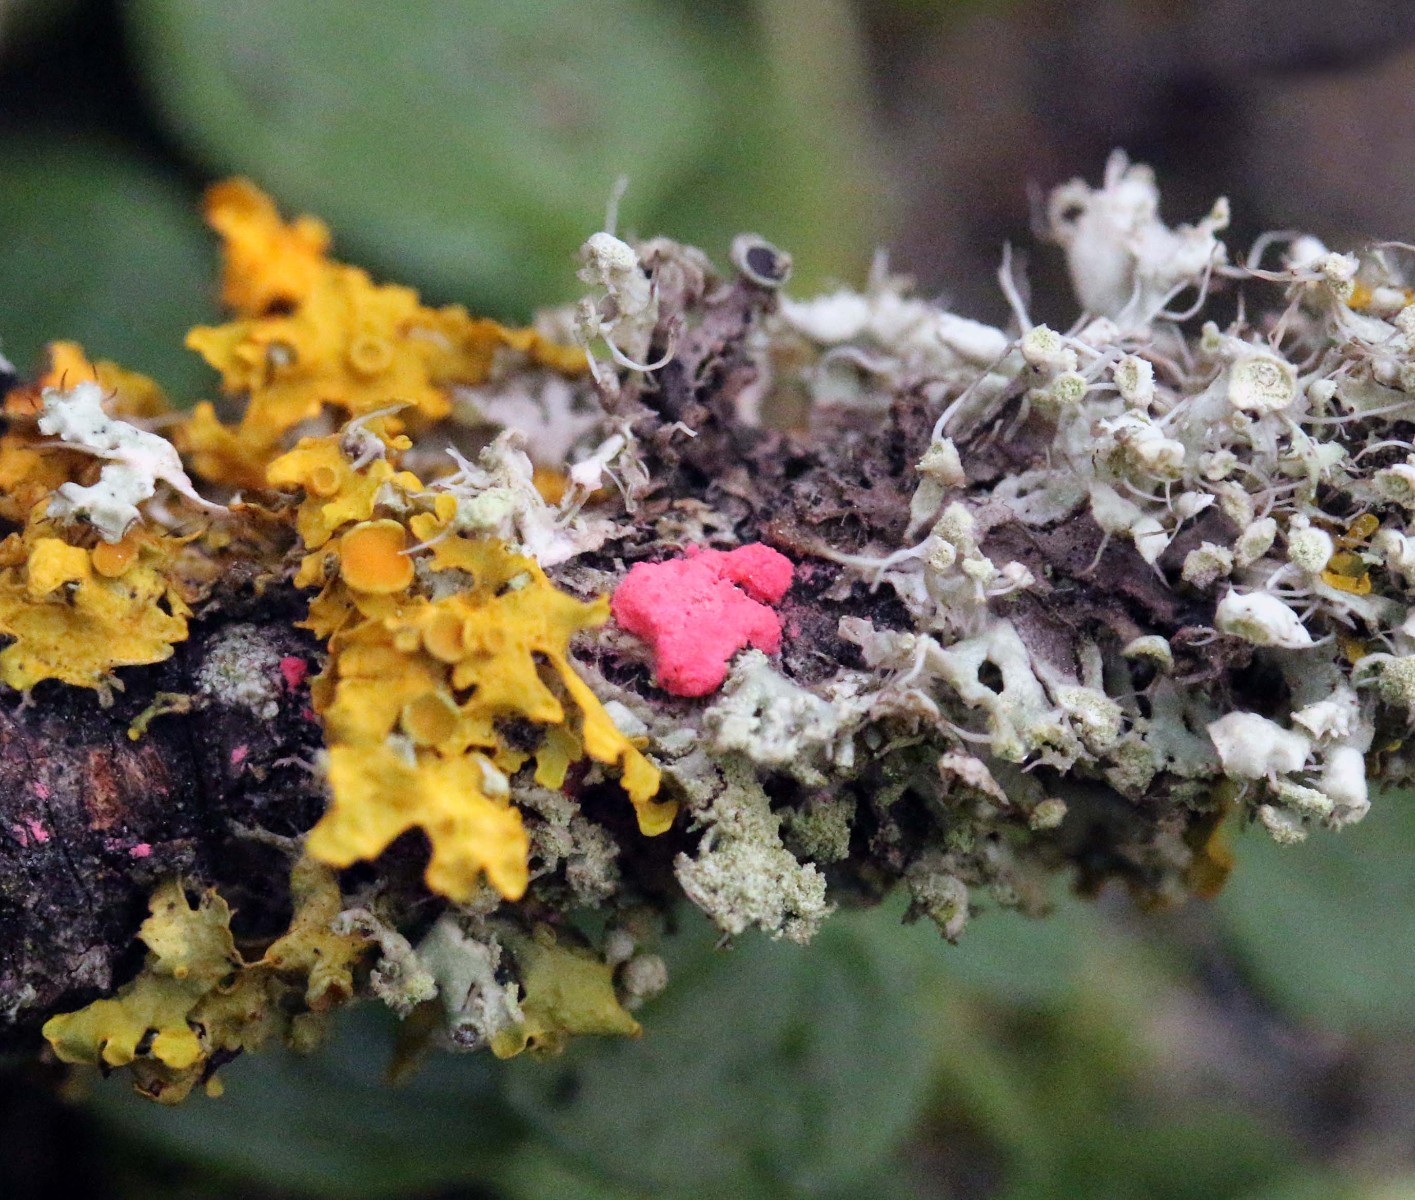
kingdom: Fungi
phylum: Ascomycota
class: Sordariomycetes
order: Hypocreales
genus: Illosporiopsis
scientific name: Illosporiopsis christiansenii
